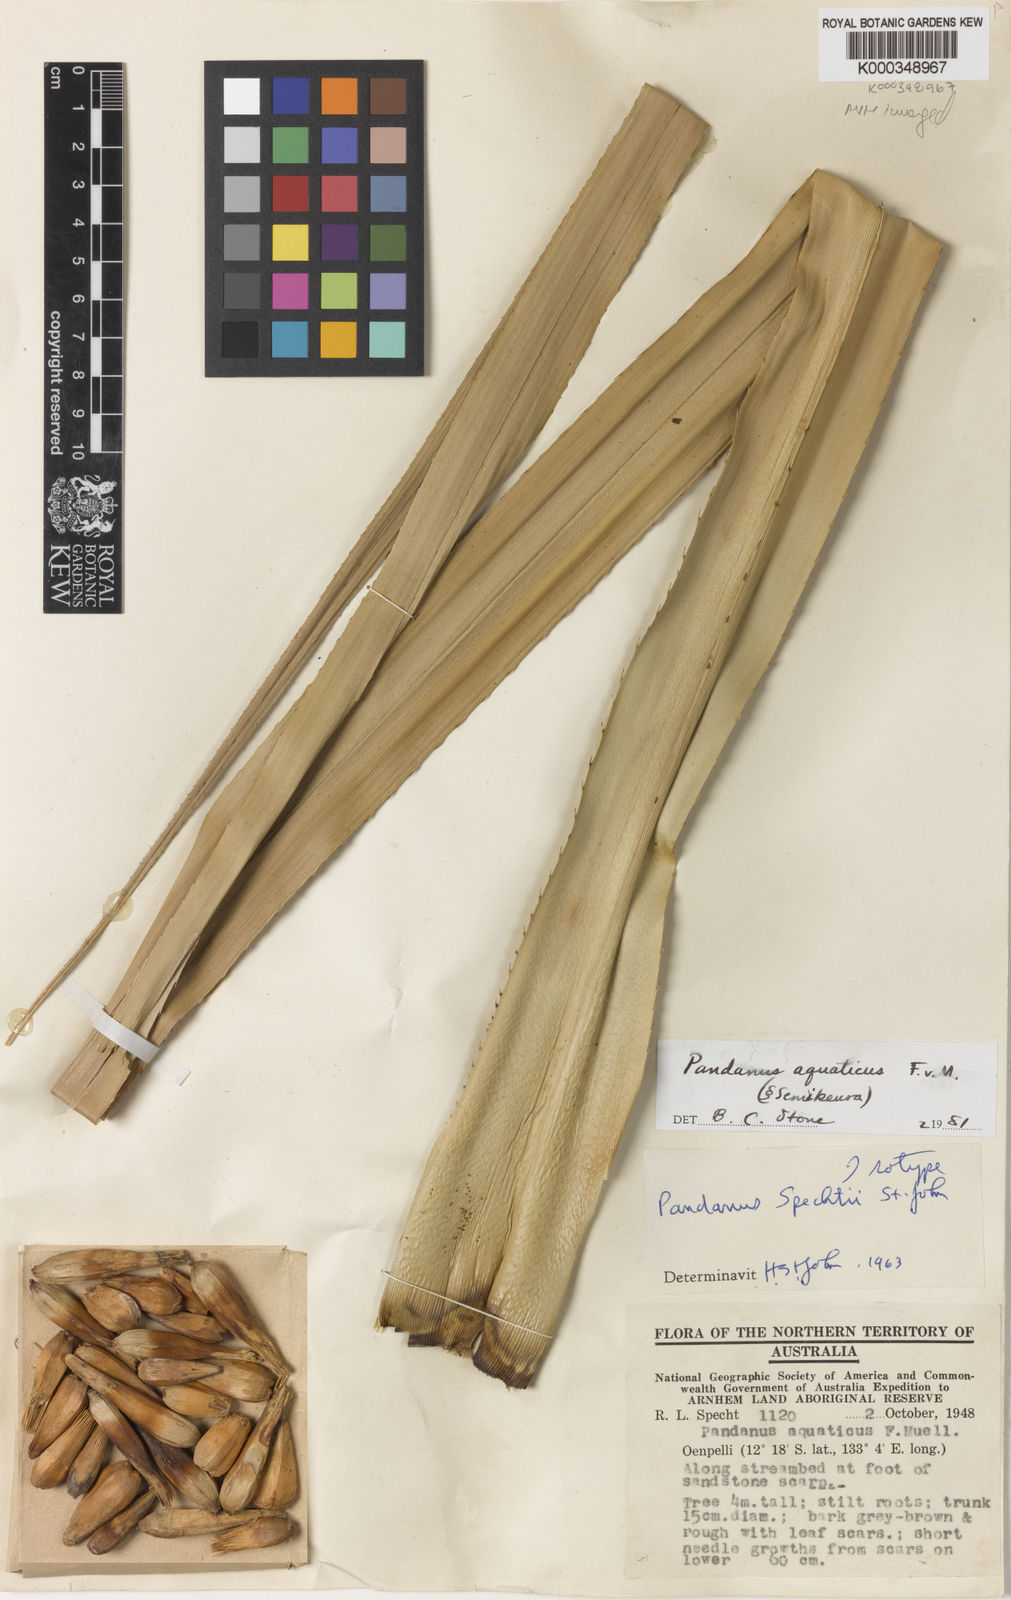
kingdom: Plantae
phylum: Tracheophyta
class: Liliopsida
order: Pandanales
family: Pandanaceae
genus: Pandanus
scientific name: Pandanus aquaticus
